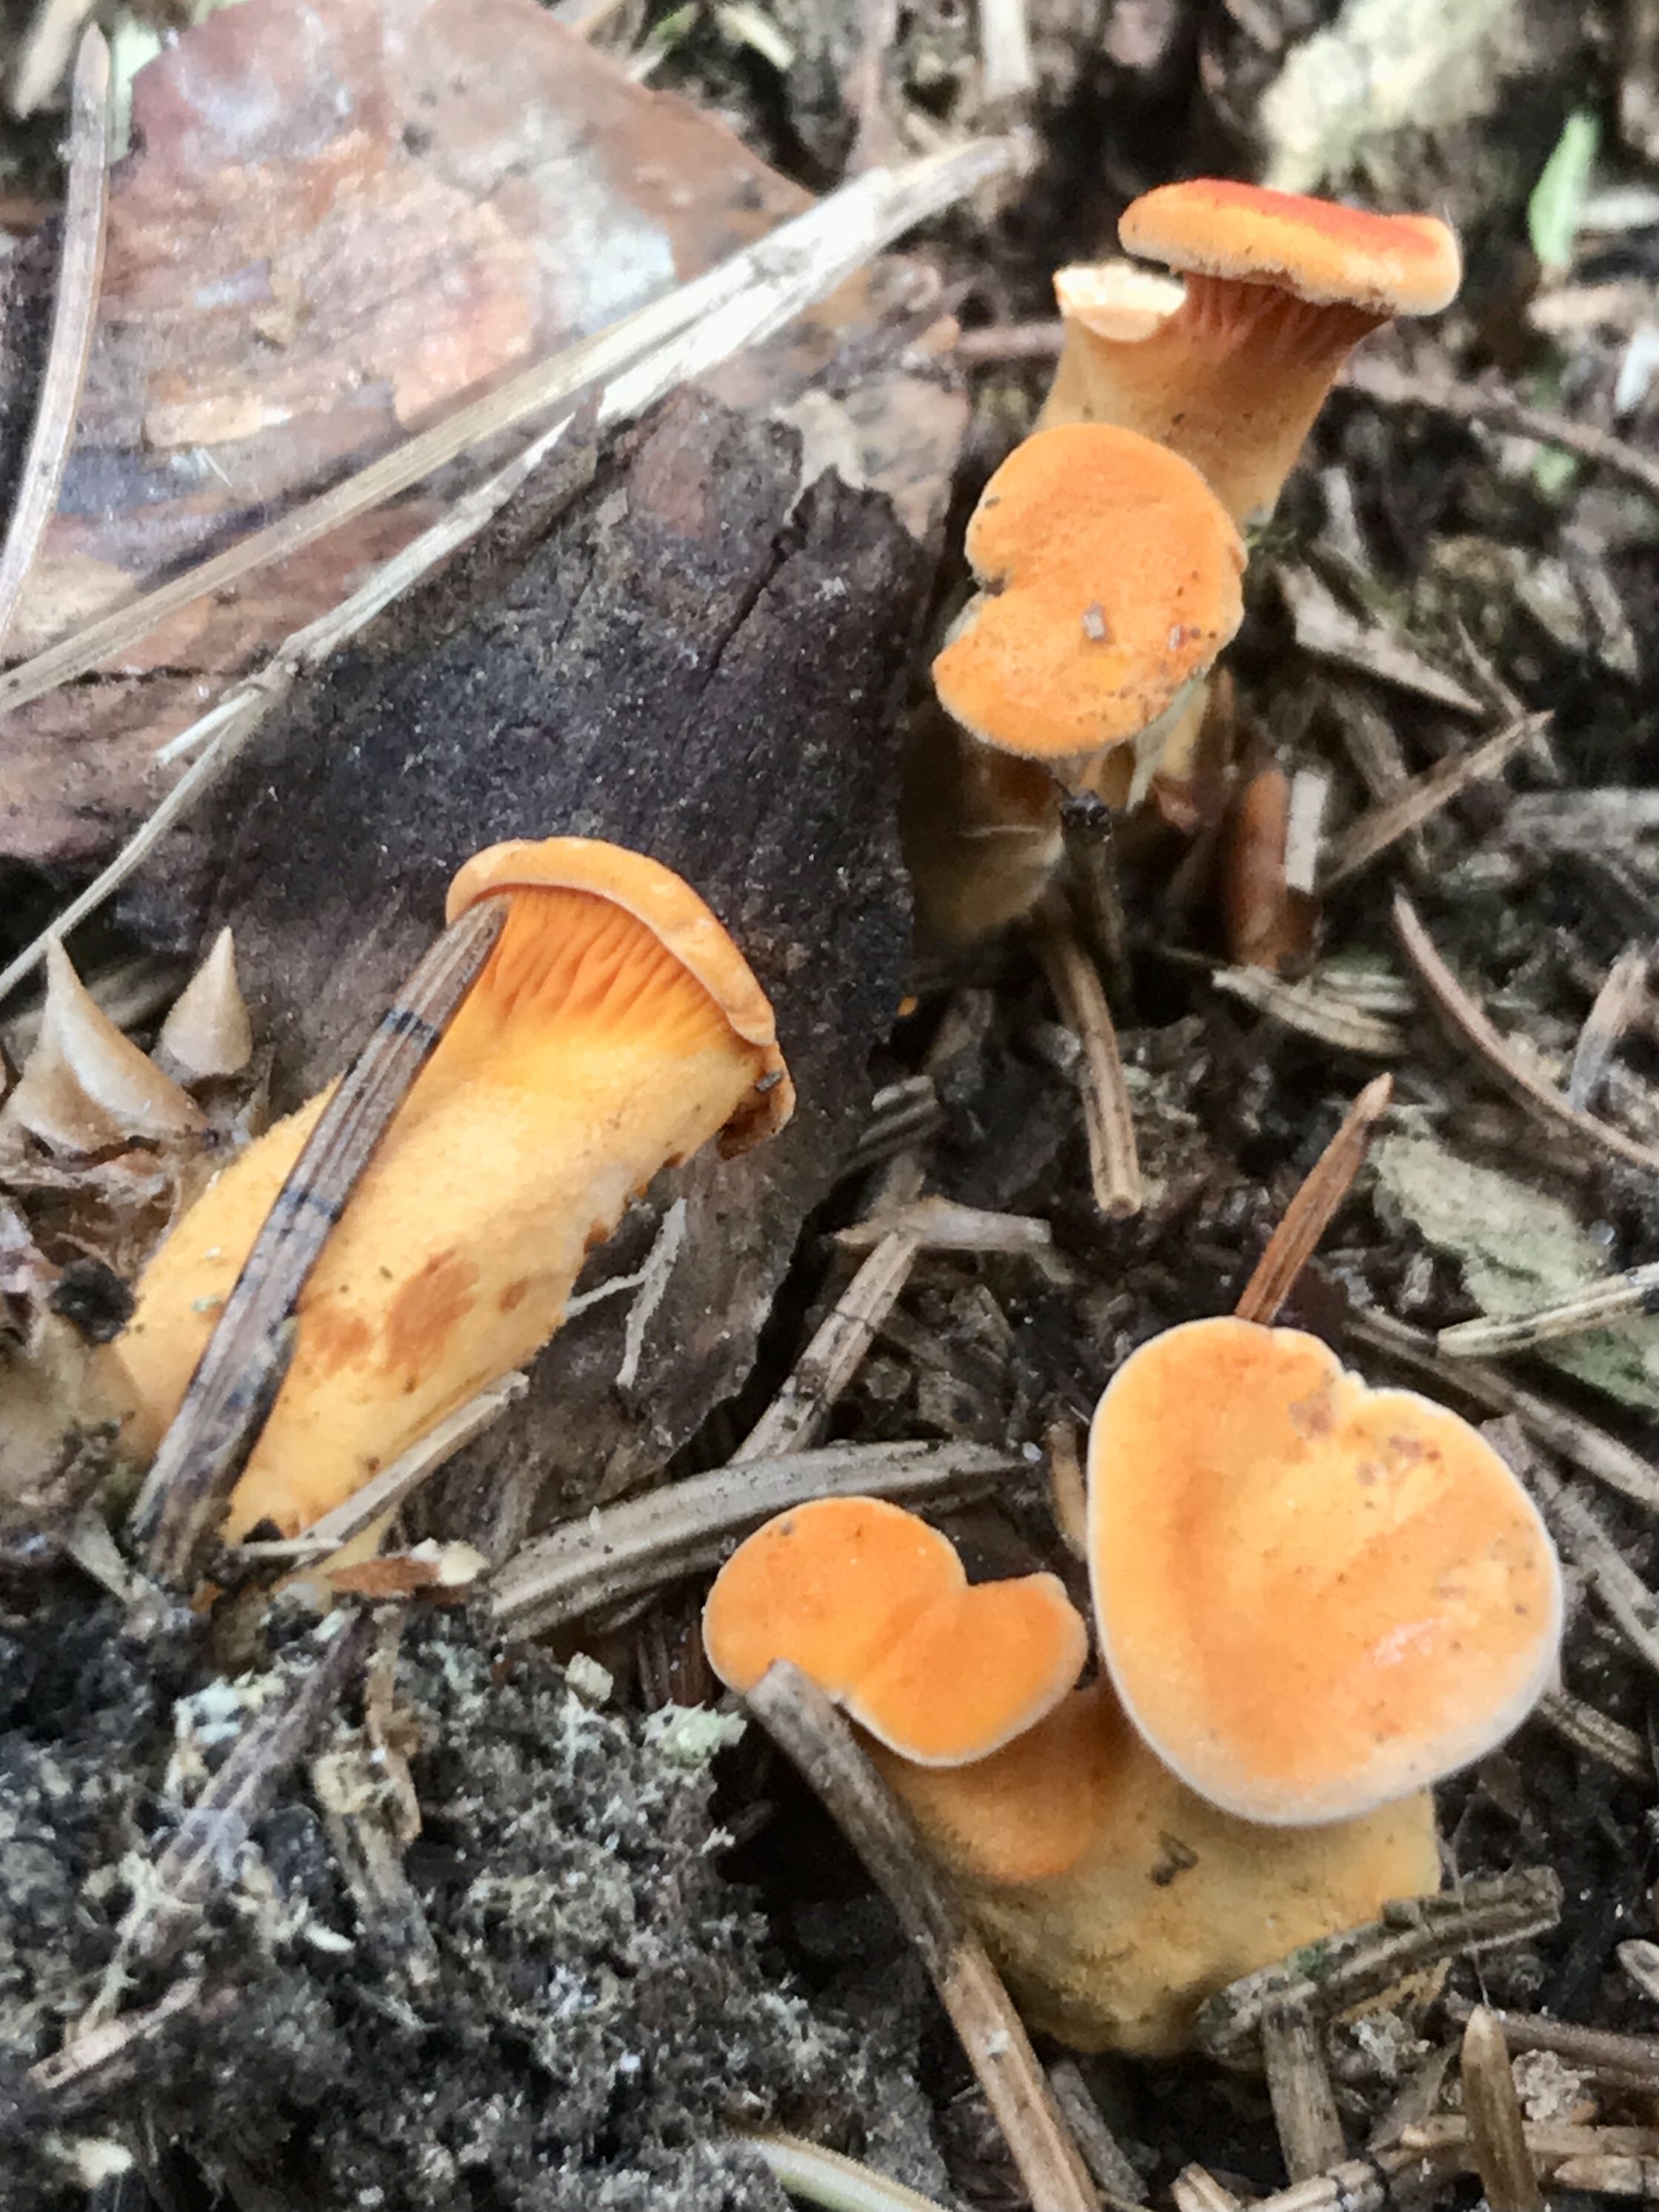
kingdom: Fungi
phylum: Basidiomycota
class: Agaricomycetes
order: Boletales
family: Hygrophoropsidaceae
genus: Hygrophoropsis
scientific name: Hygrophoropsis aurantiaca
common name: almindelig orangekantarel
